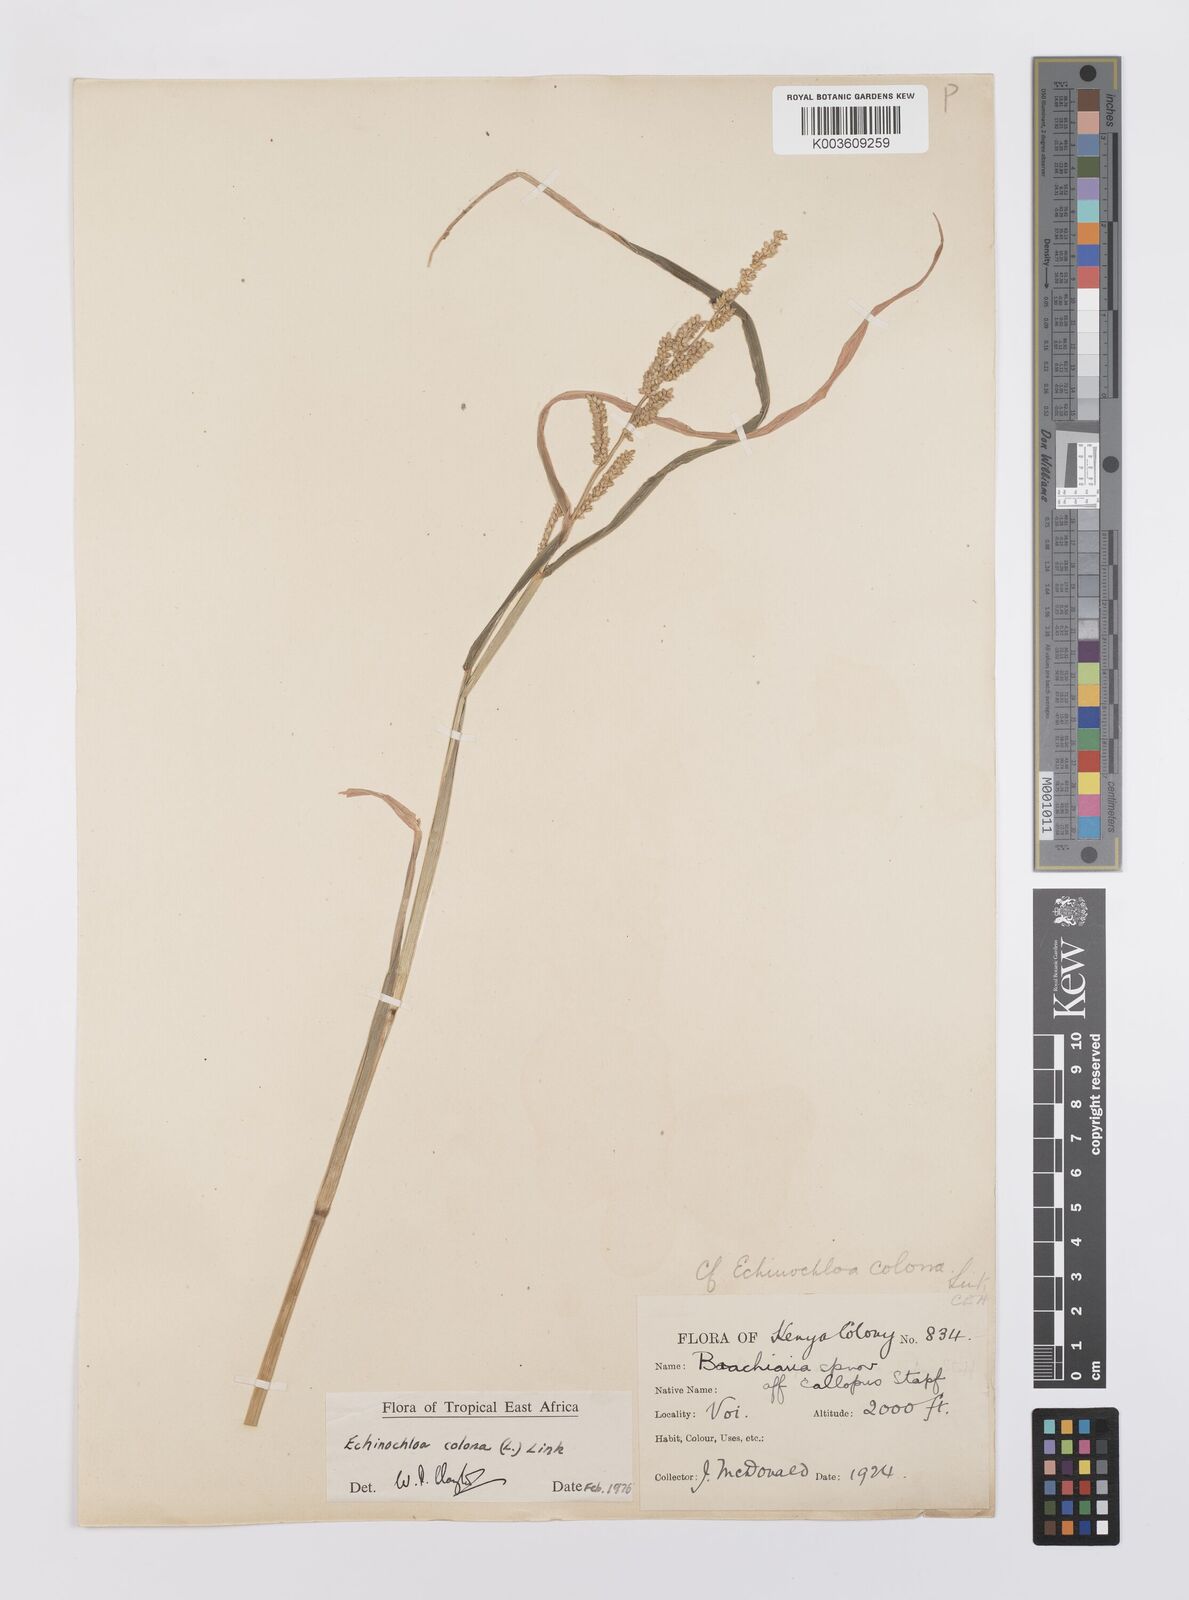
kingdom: Plantae
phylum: Tracheophyta
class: Liliopsida
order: Poales
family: Poaceae
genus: Echinochloa
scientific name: Echinochloa colonum
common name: Jungle rice
